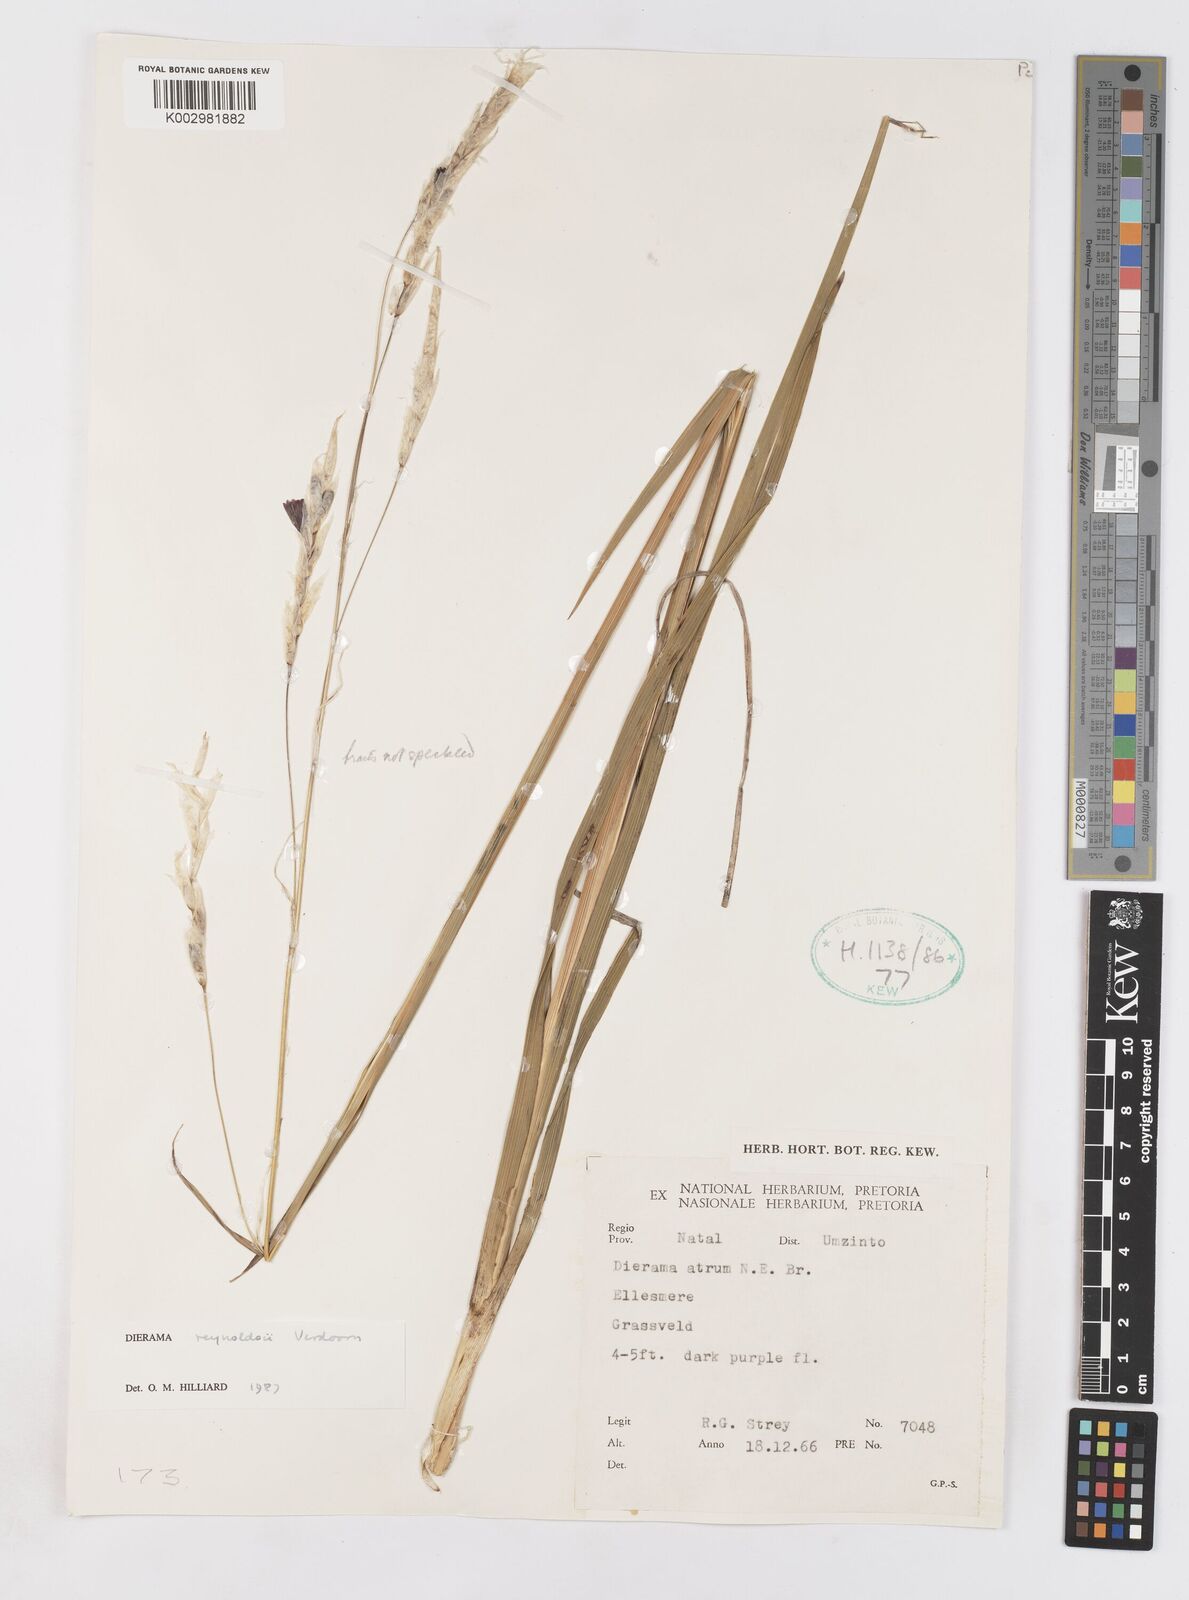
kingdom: Plantae
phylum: Tracheophyta
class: Liliopsida
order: Asparagales
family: Iridaceae
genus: Dierama
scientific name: Dierama reynoldsii
